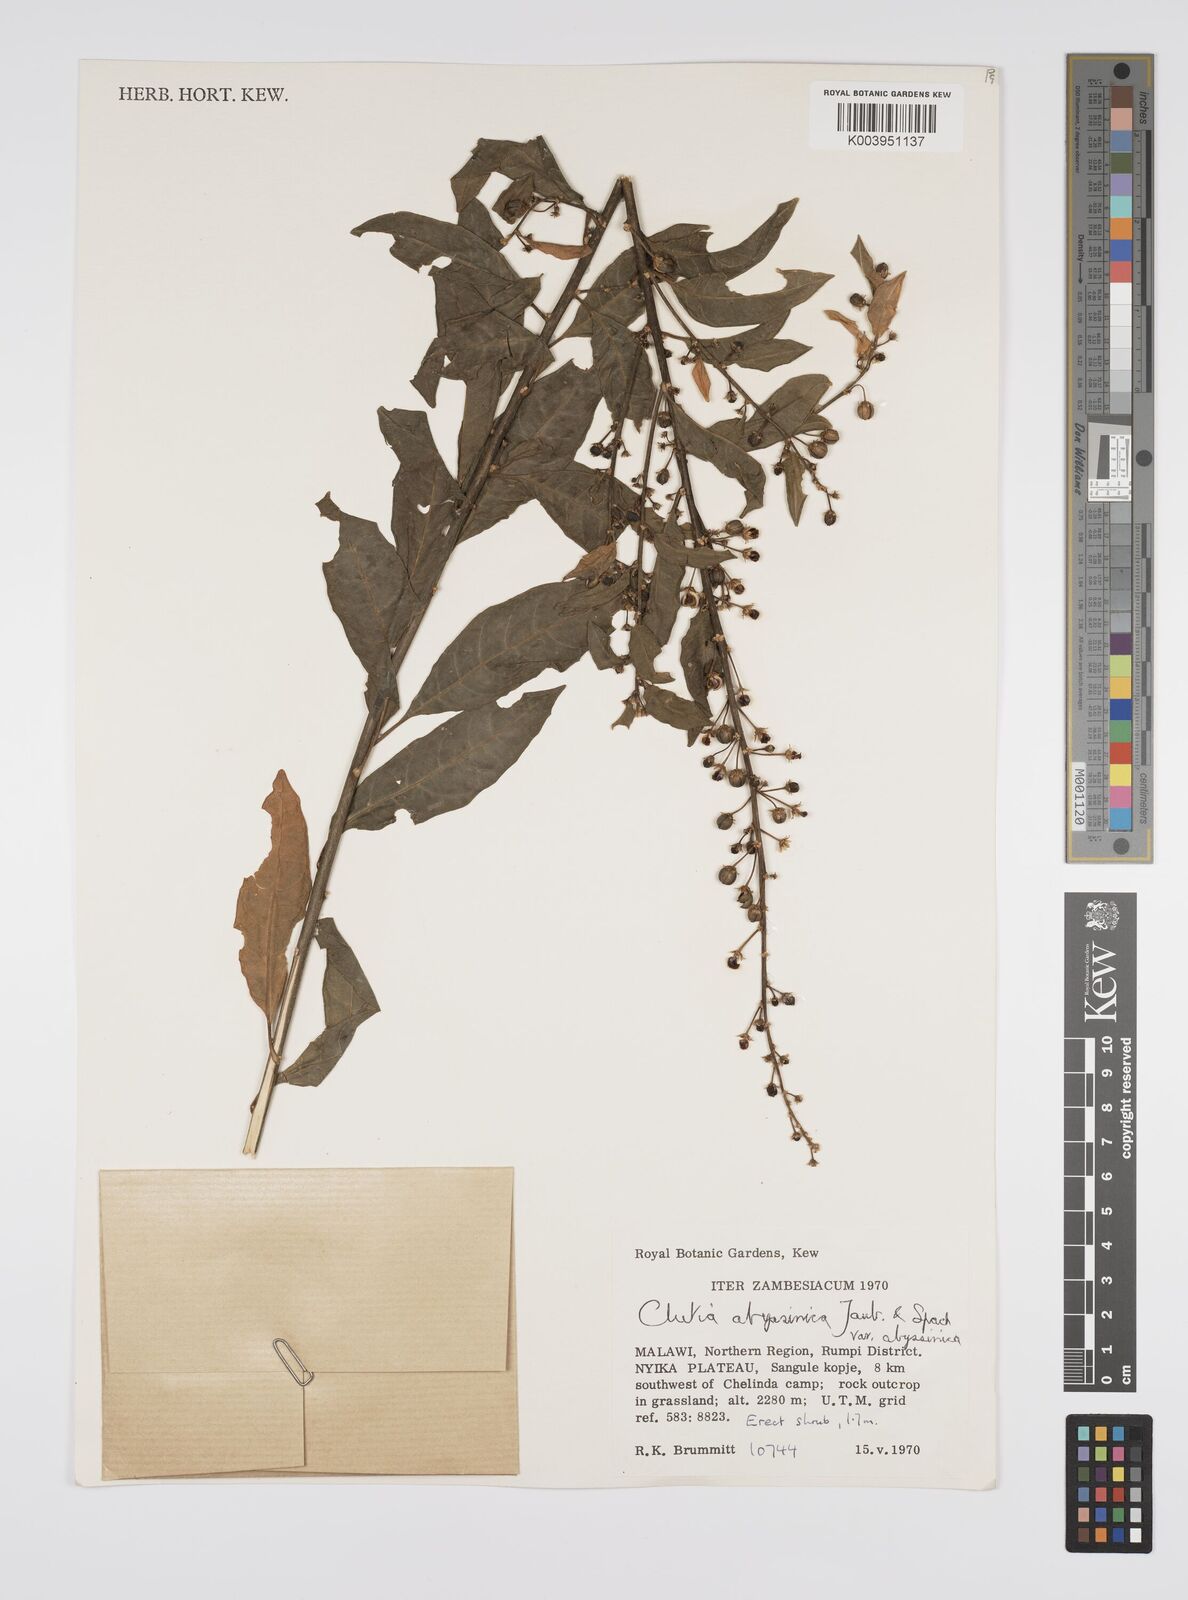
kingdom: Plantae
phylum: Tracheophyta
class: Magnoliopsida
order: Malpighiales
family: Peraceae
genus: Clutia
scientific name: Clutia abyssinica
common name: Large lightning bush
